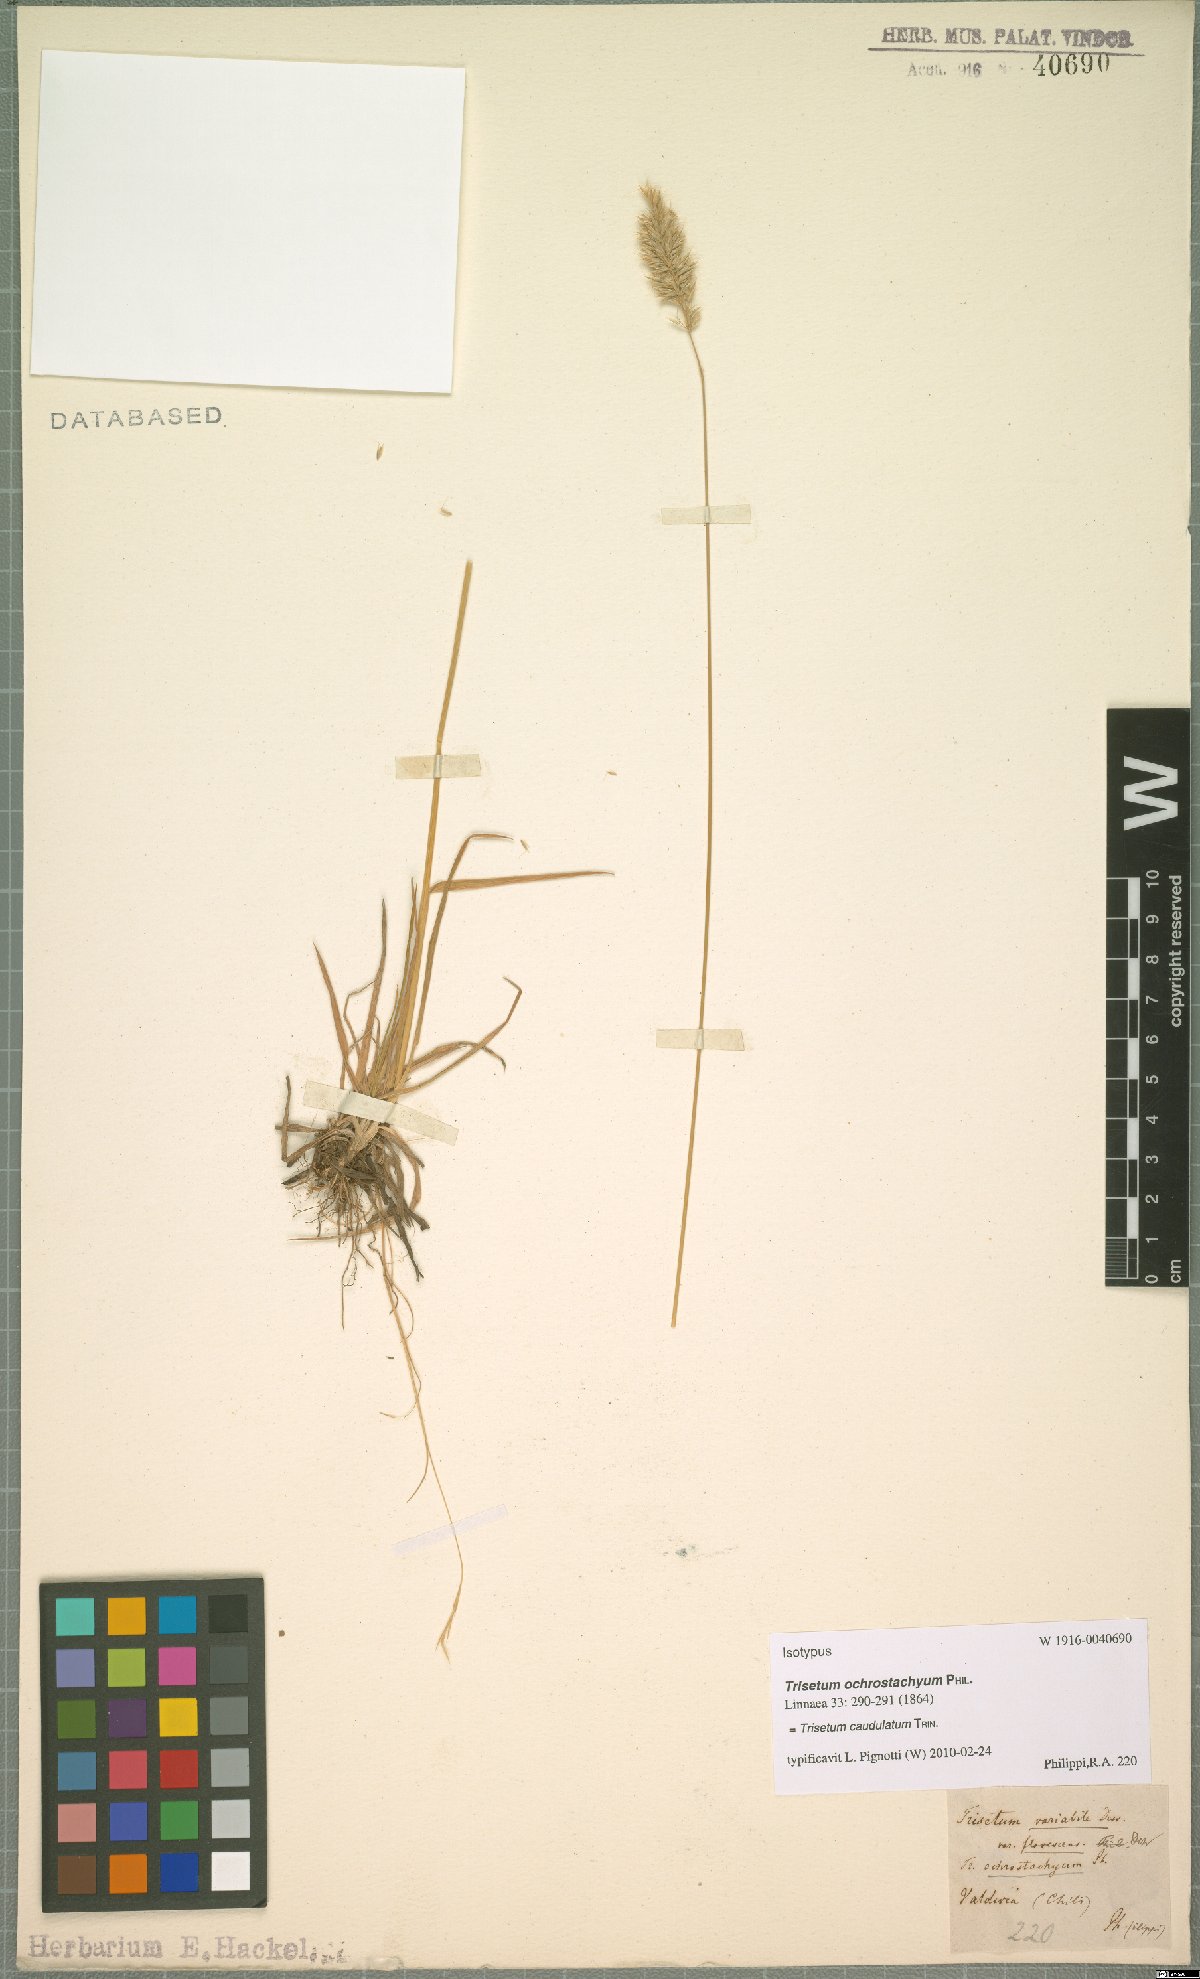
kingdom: Plantae
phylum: Tracheophyta
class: Liliopsida
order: Poales
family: Poaceae
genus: Trisetum
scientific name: Trisetum caudulatum
